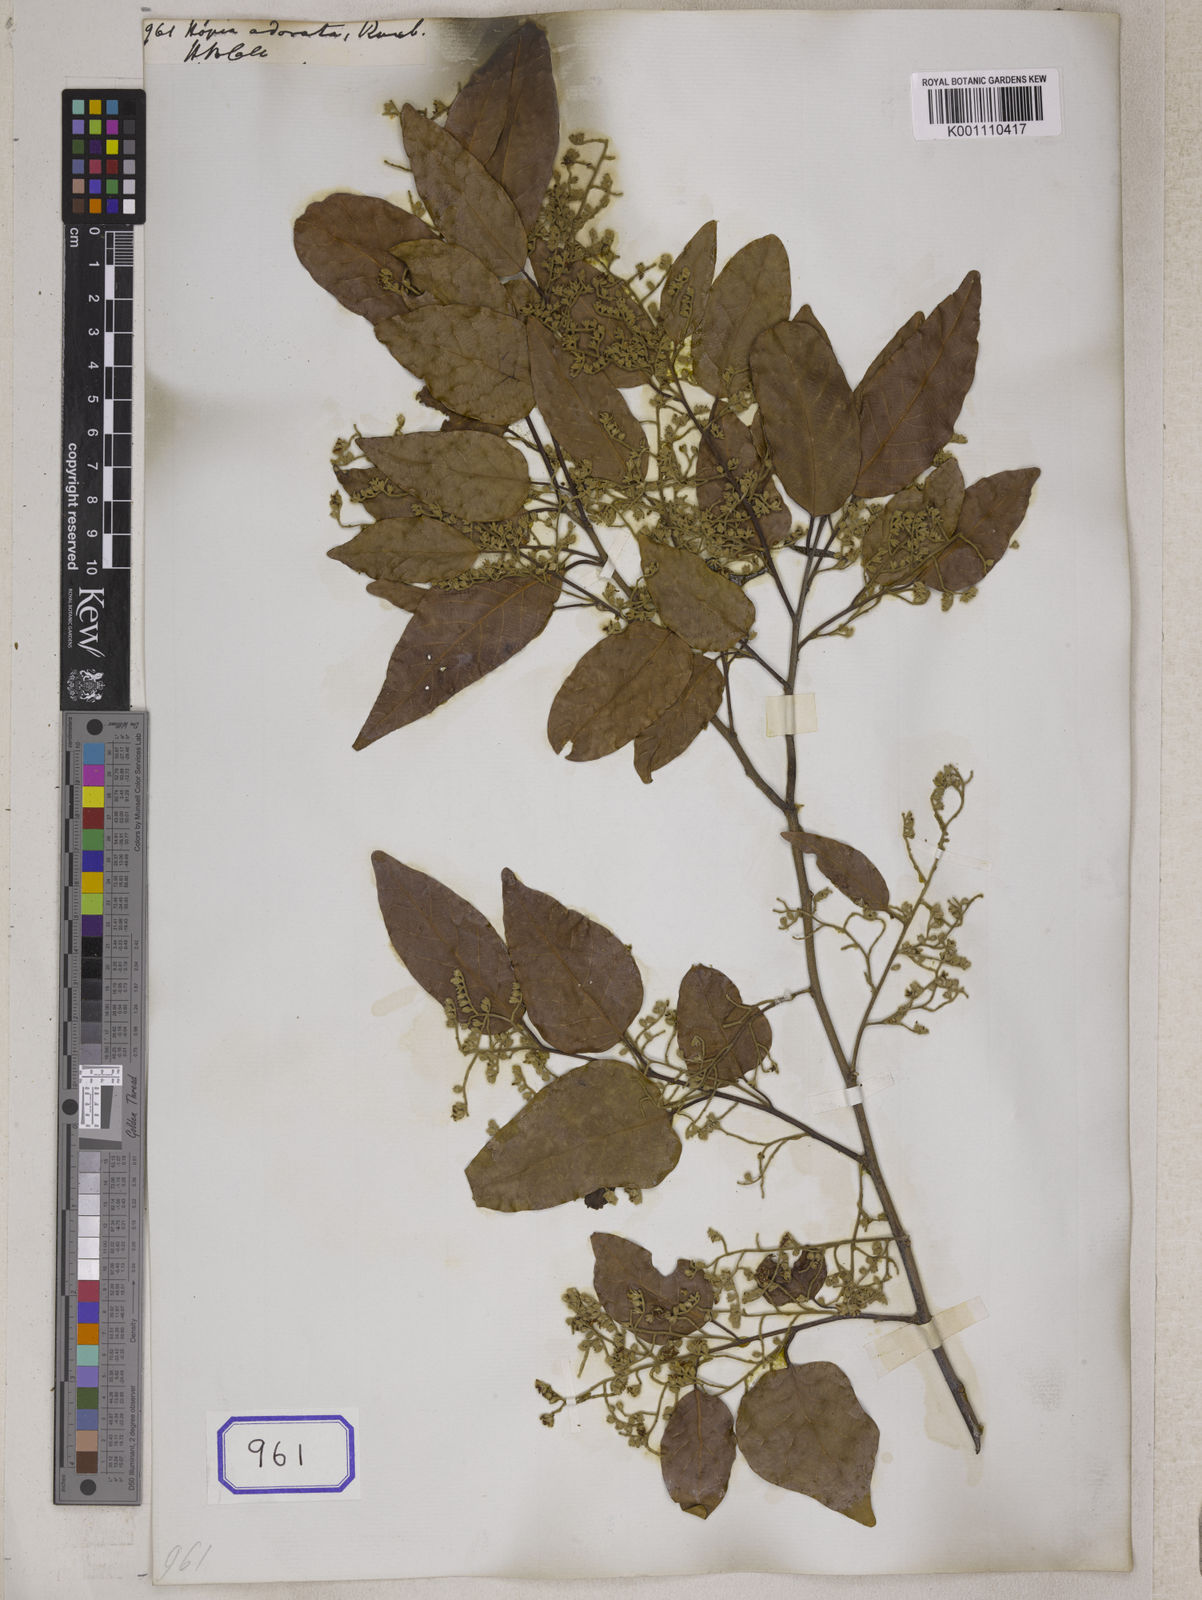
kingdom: Plantae
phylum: Tracheophyta
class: Magnoliopsida
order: Malvales
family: Dipterocarpaceae
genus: Hopea
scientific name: Hopea odorata
